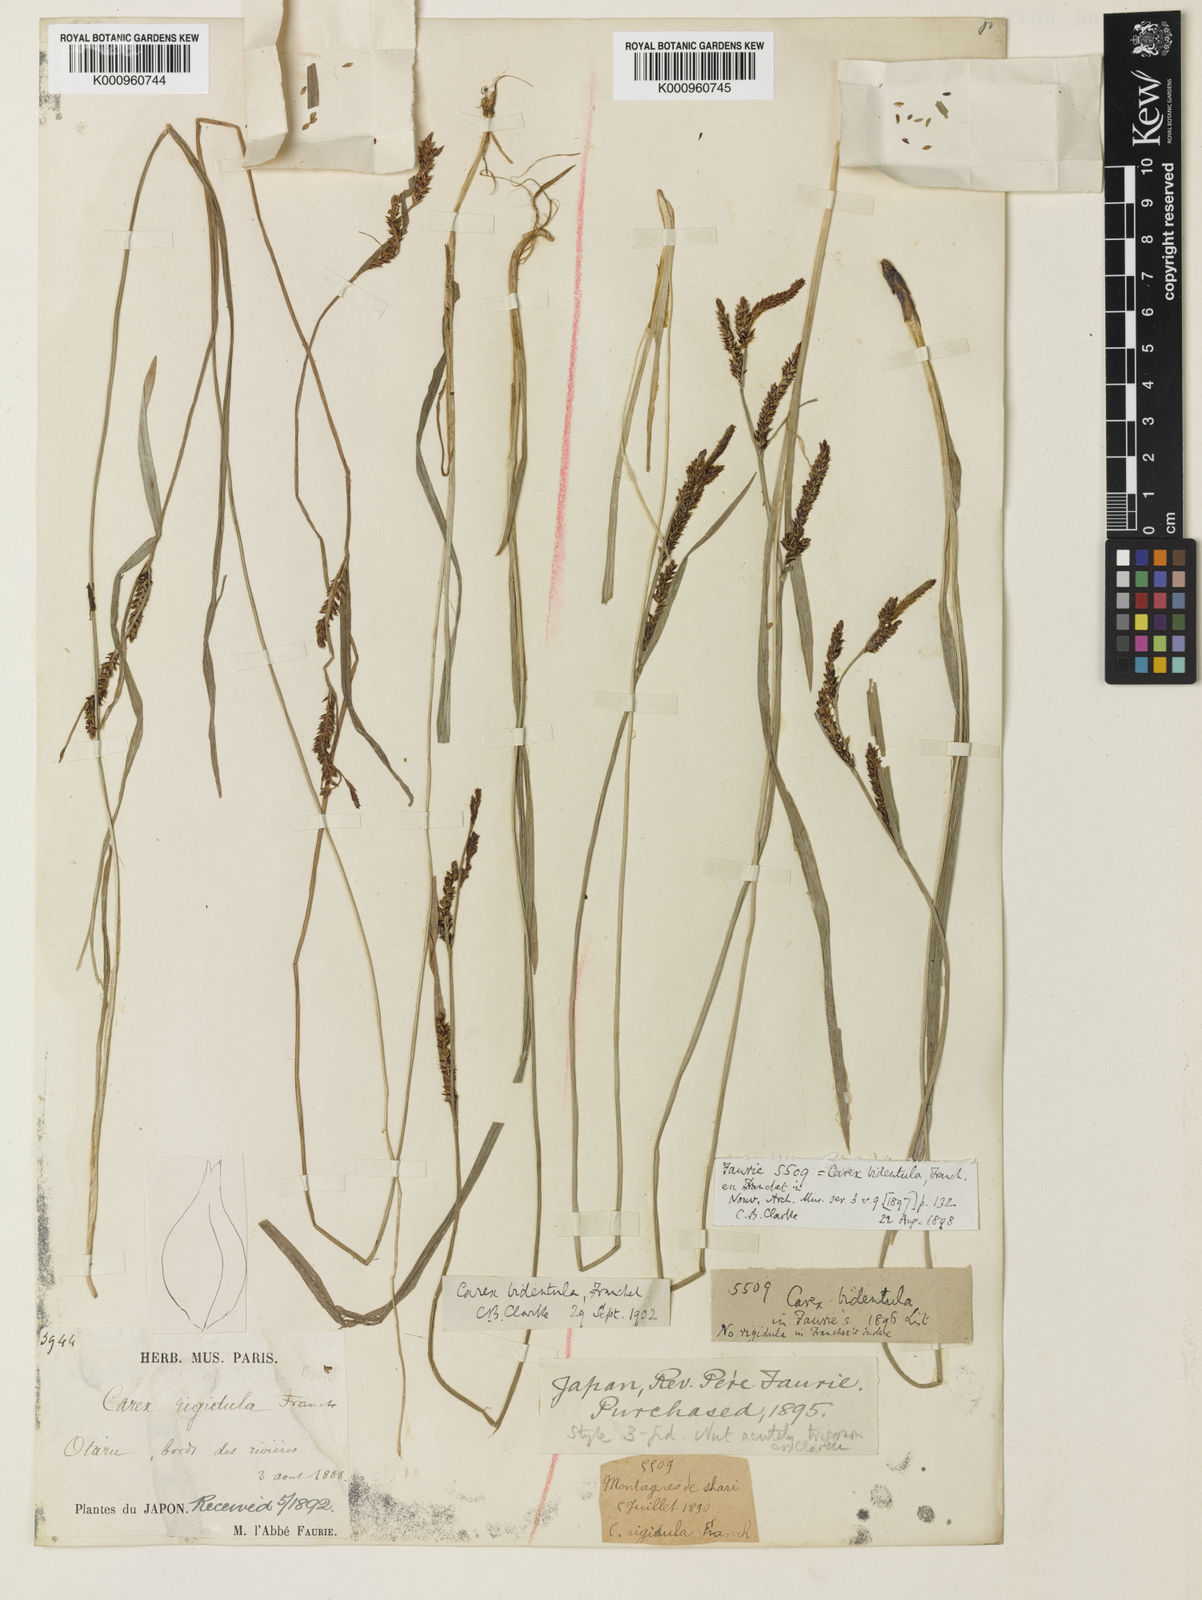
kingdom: Plantae
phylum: Tracheophyta
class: Liliopsida
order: Poales
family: Cyperaceae
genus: Carex
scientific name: Carex augustinowiczii
